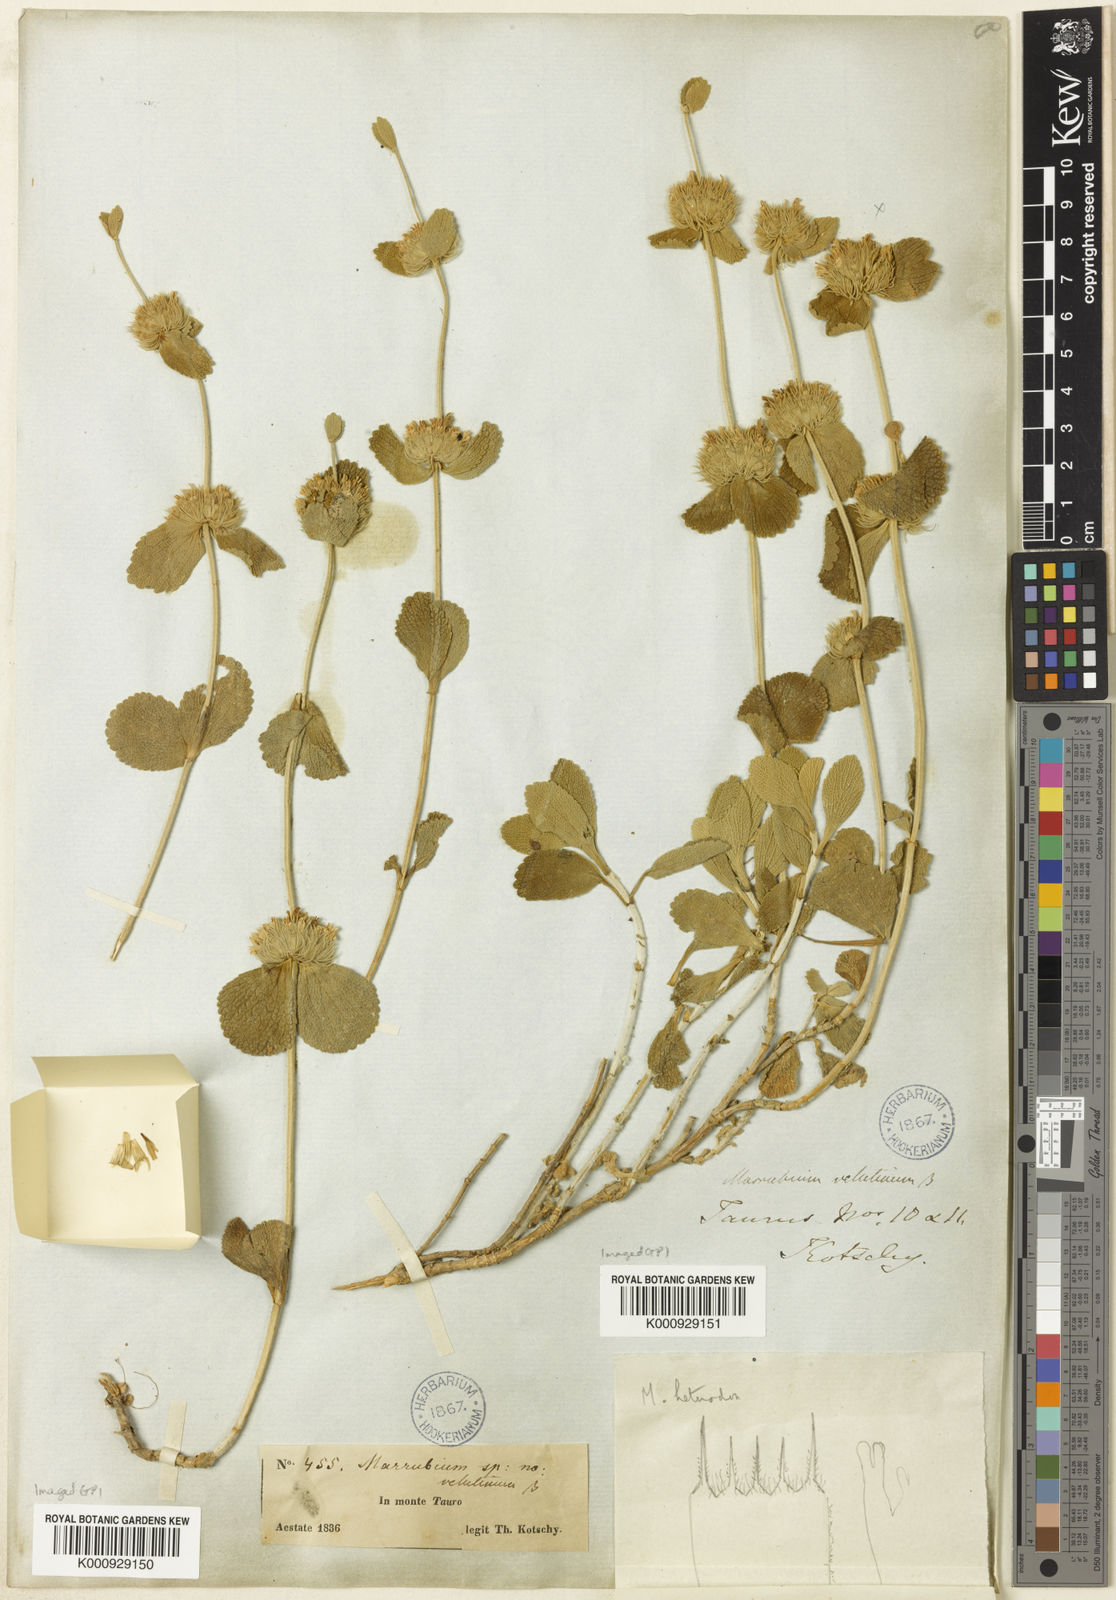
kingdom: Plantae
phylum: Tracheophyta
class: Magnoliopsida
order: Lamiales
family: Lamiaceae
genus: Marrubium
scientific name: Marrubium heterodon
